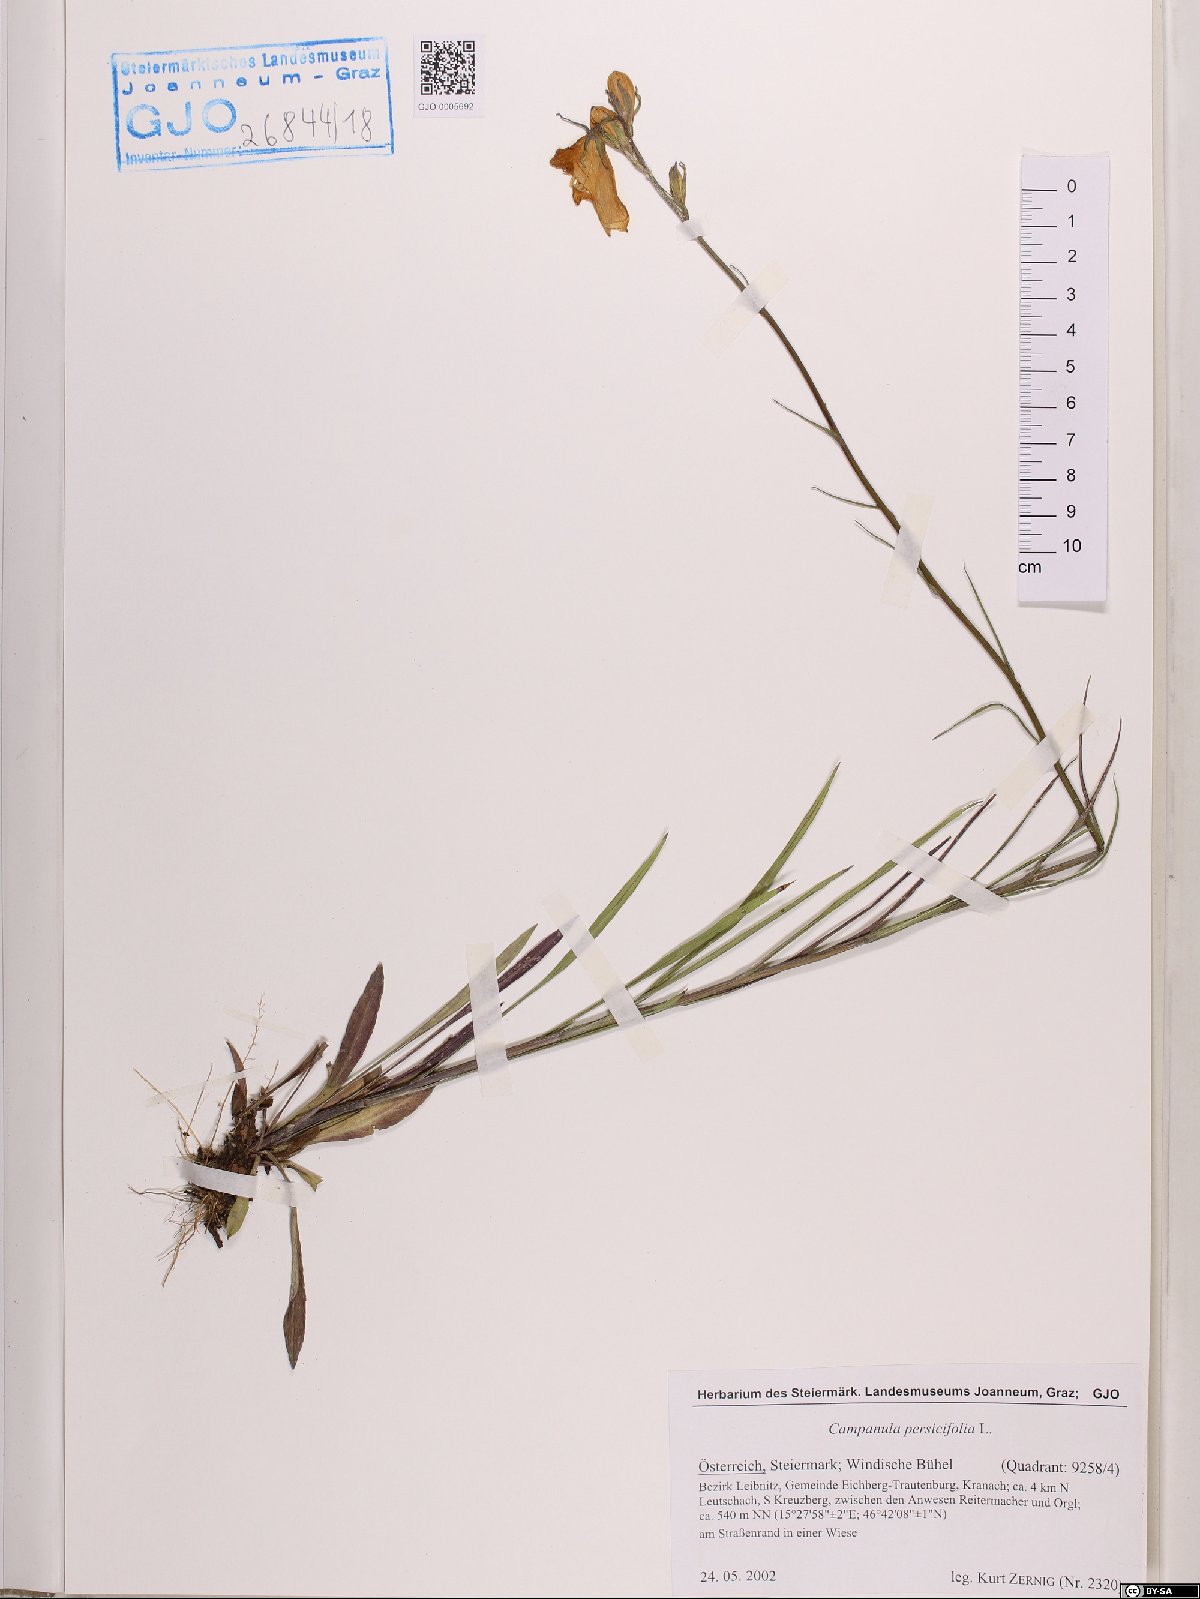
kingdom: Plantae
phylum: Tracheophyta
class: Magnoliopsida
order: Asterales
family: Campanulaceae
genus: Campanula
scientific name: Campanula persicifolia
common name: Peach-leaved bellflower
